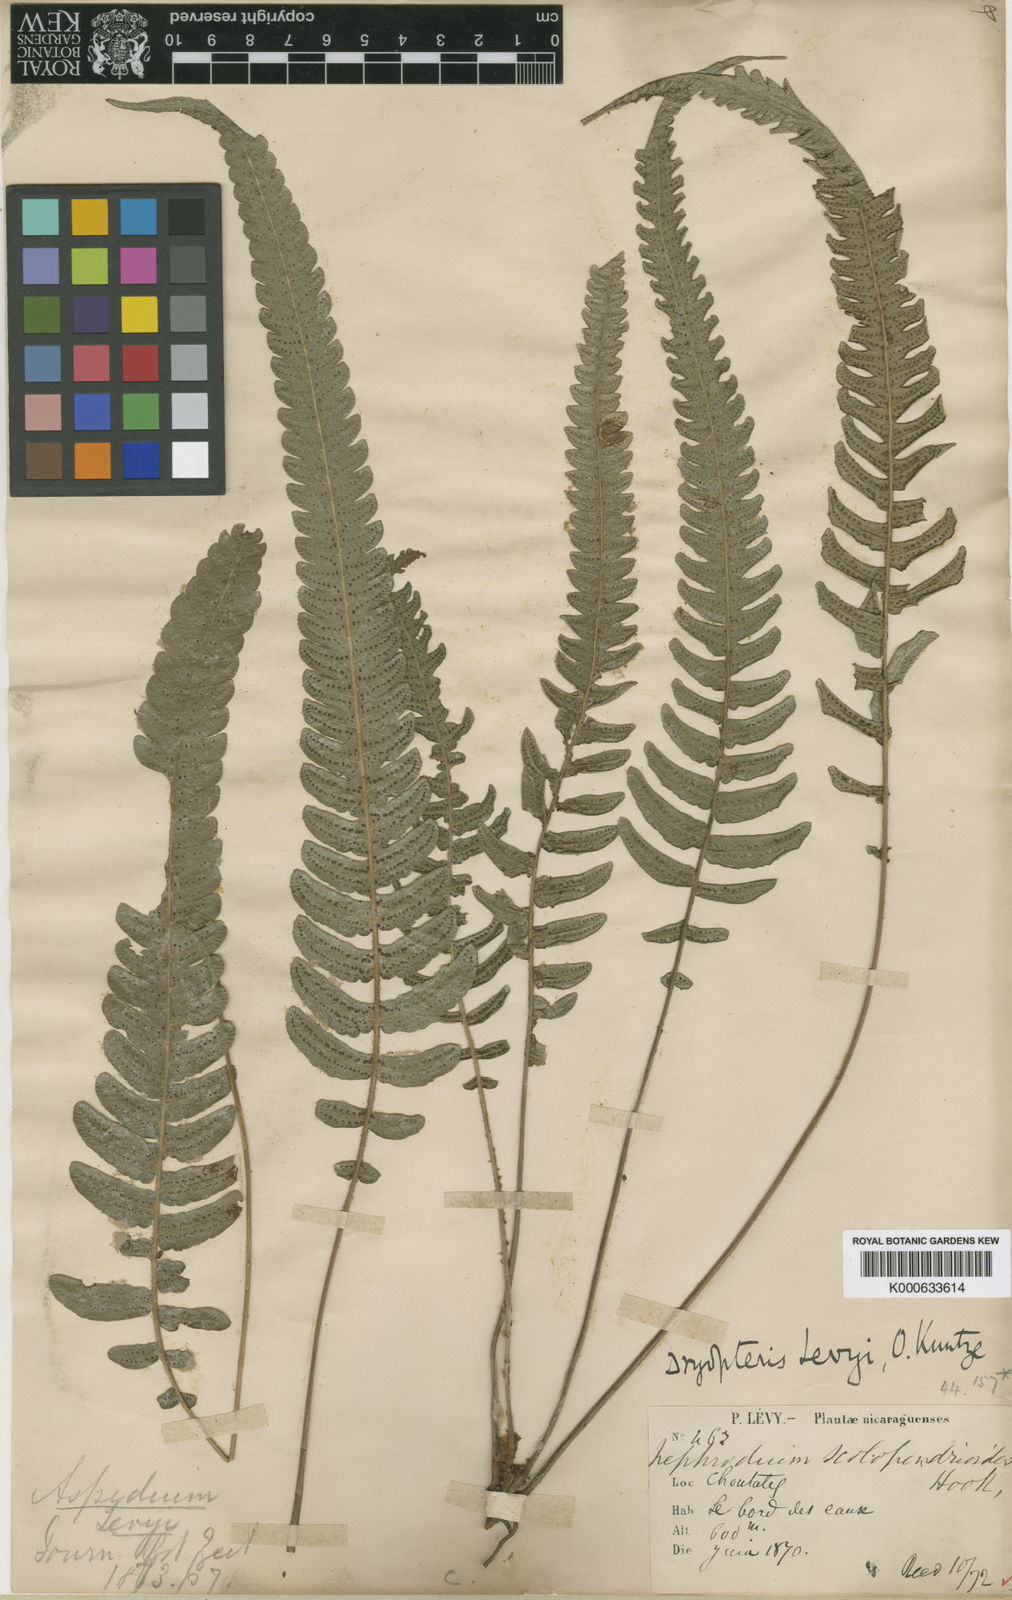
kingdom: Plantae
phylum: Tracheophyta
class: Polypodiopsida
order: Polypodiales
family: Thelypteridaceae
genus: Goniopteris
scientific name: Goniopteris levyi
